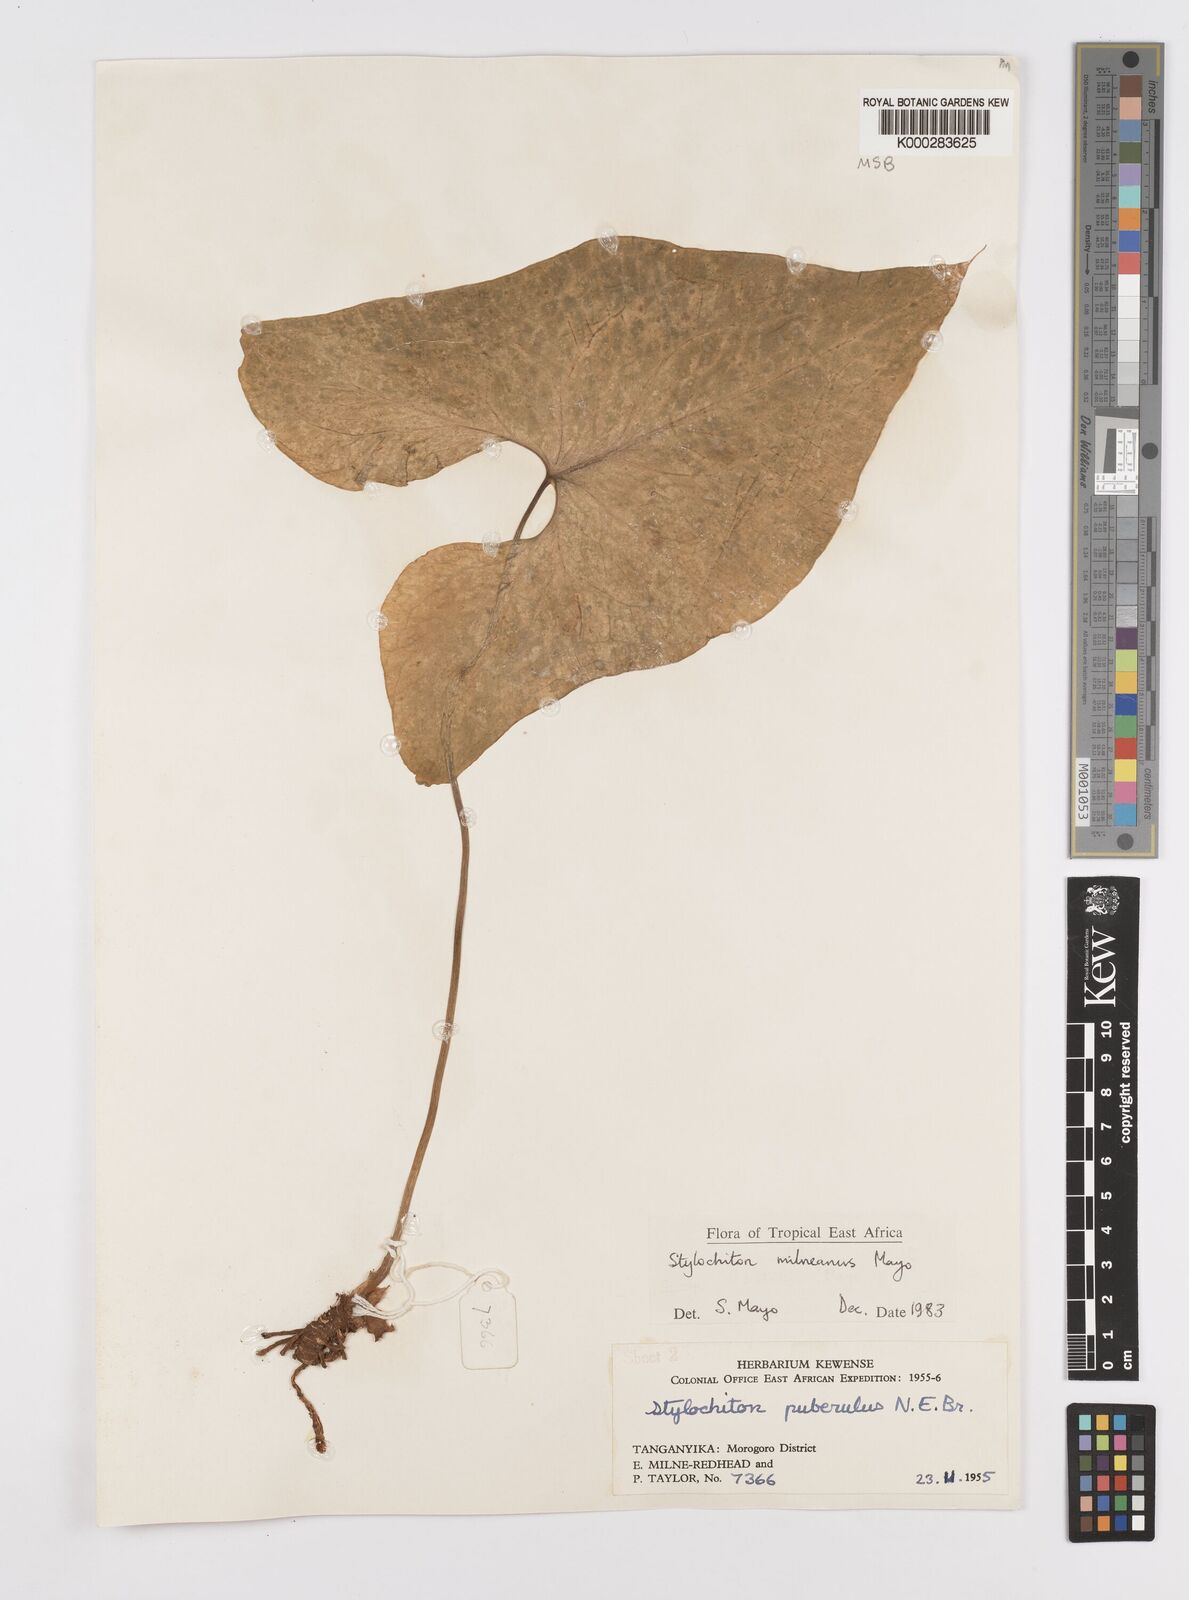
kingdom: Plantae
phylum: Tracheophyta
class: Liliopsida
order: Alismatales
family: Araceae
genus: Stylochaeton
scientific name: Stylochaeton milneanum
